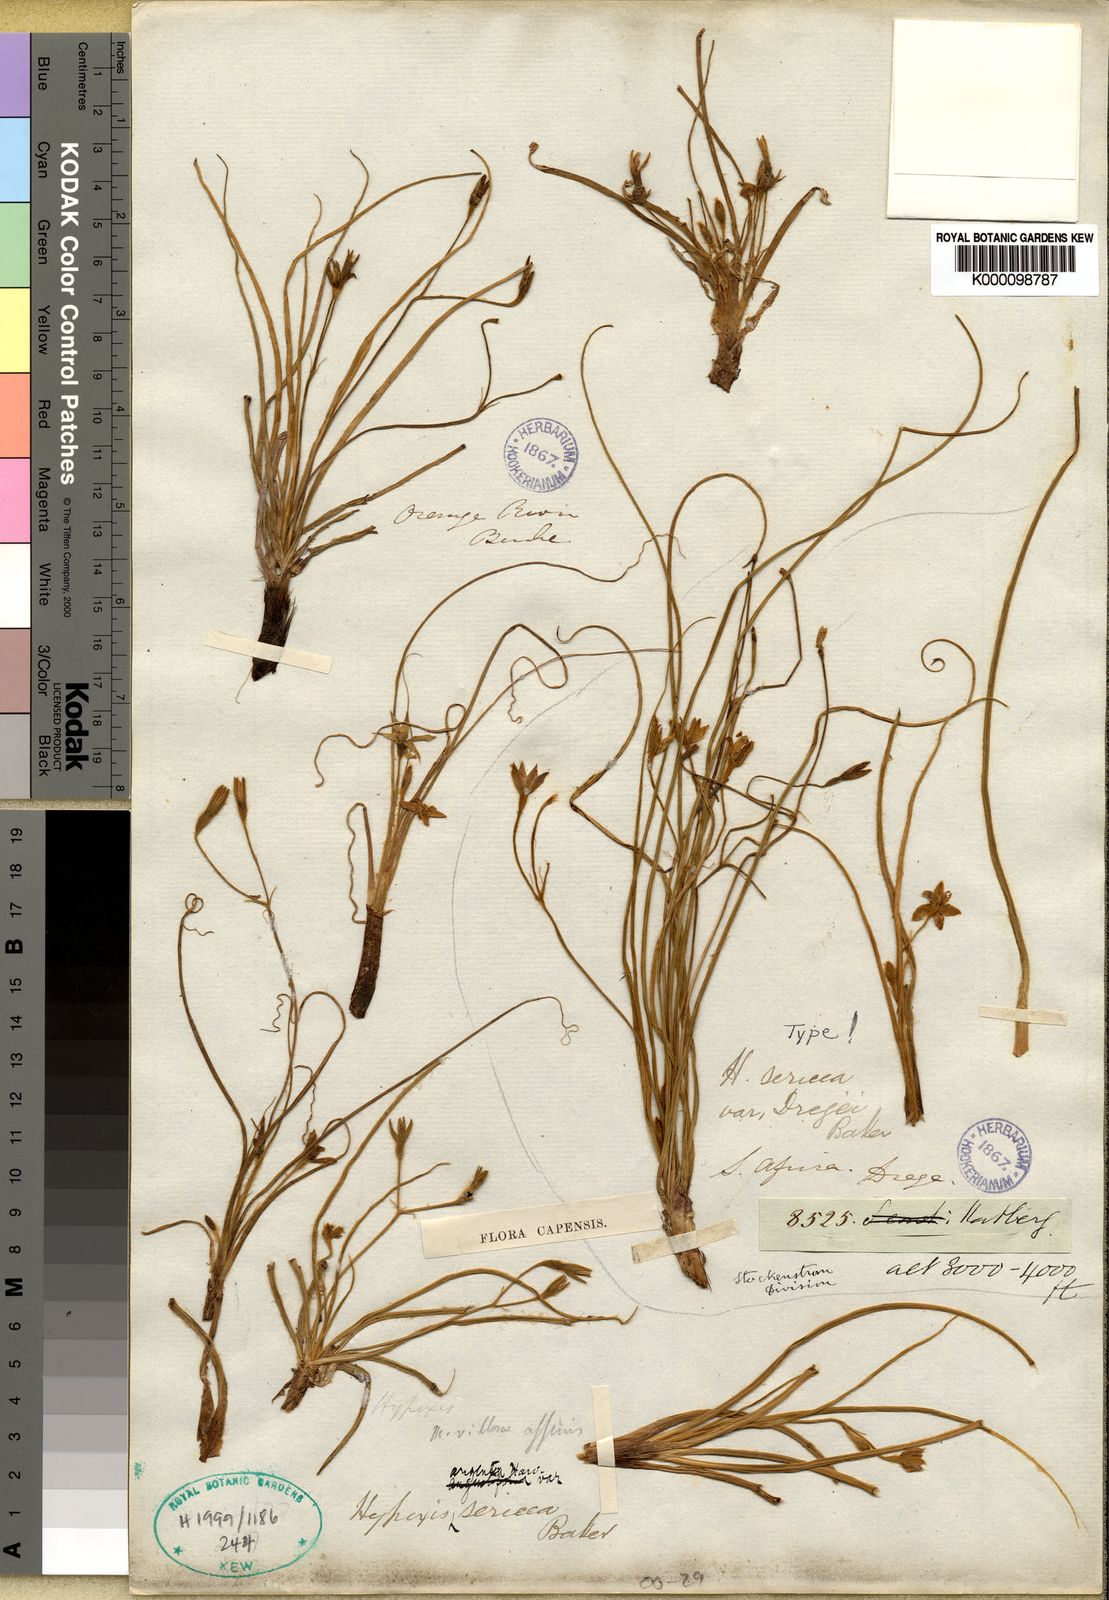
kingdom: Plantae
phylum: Tracheophyta
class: Liliopsida
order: Asparagales
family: Hypoxidaceae
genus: Hypoxis
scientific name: Hypoxis argentea
